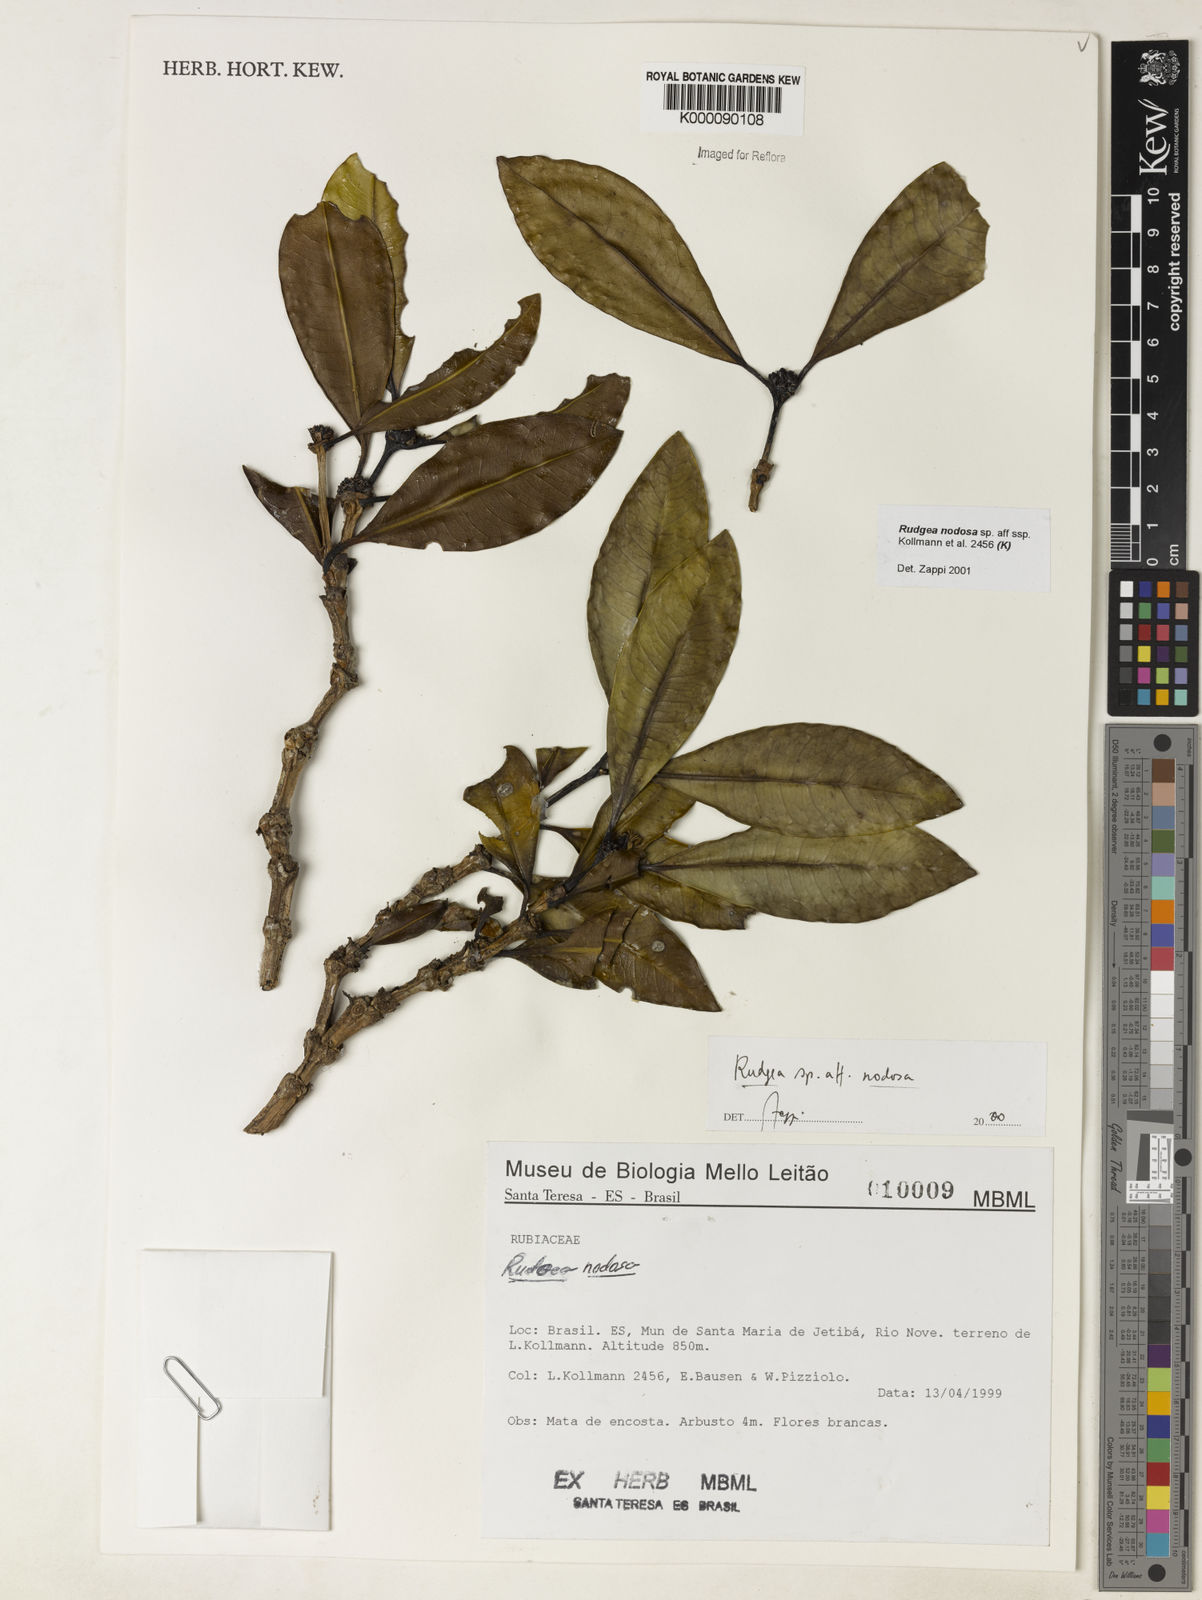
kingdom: Plantae
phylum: Tracheophyta
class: Magnoliopsida
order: Gentianales
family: Rubiaceae
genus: Rudgea
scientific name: Rudgea nodosa
